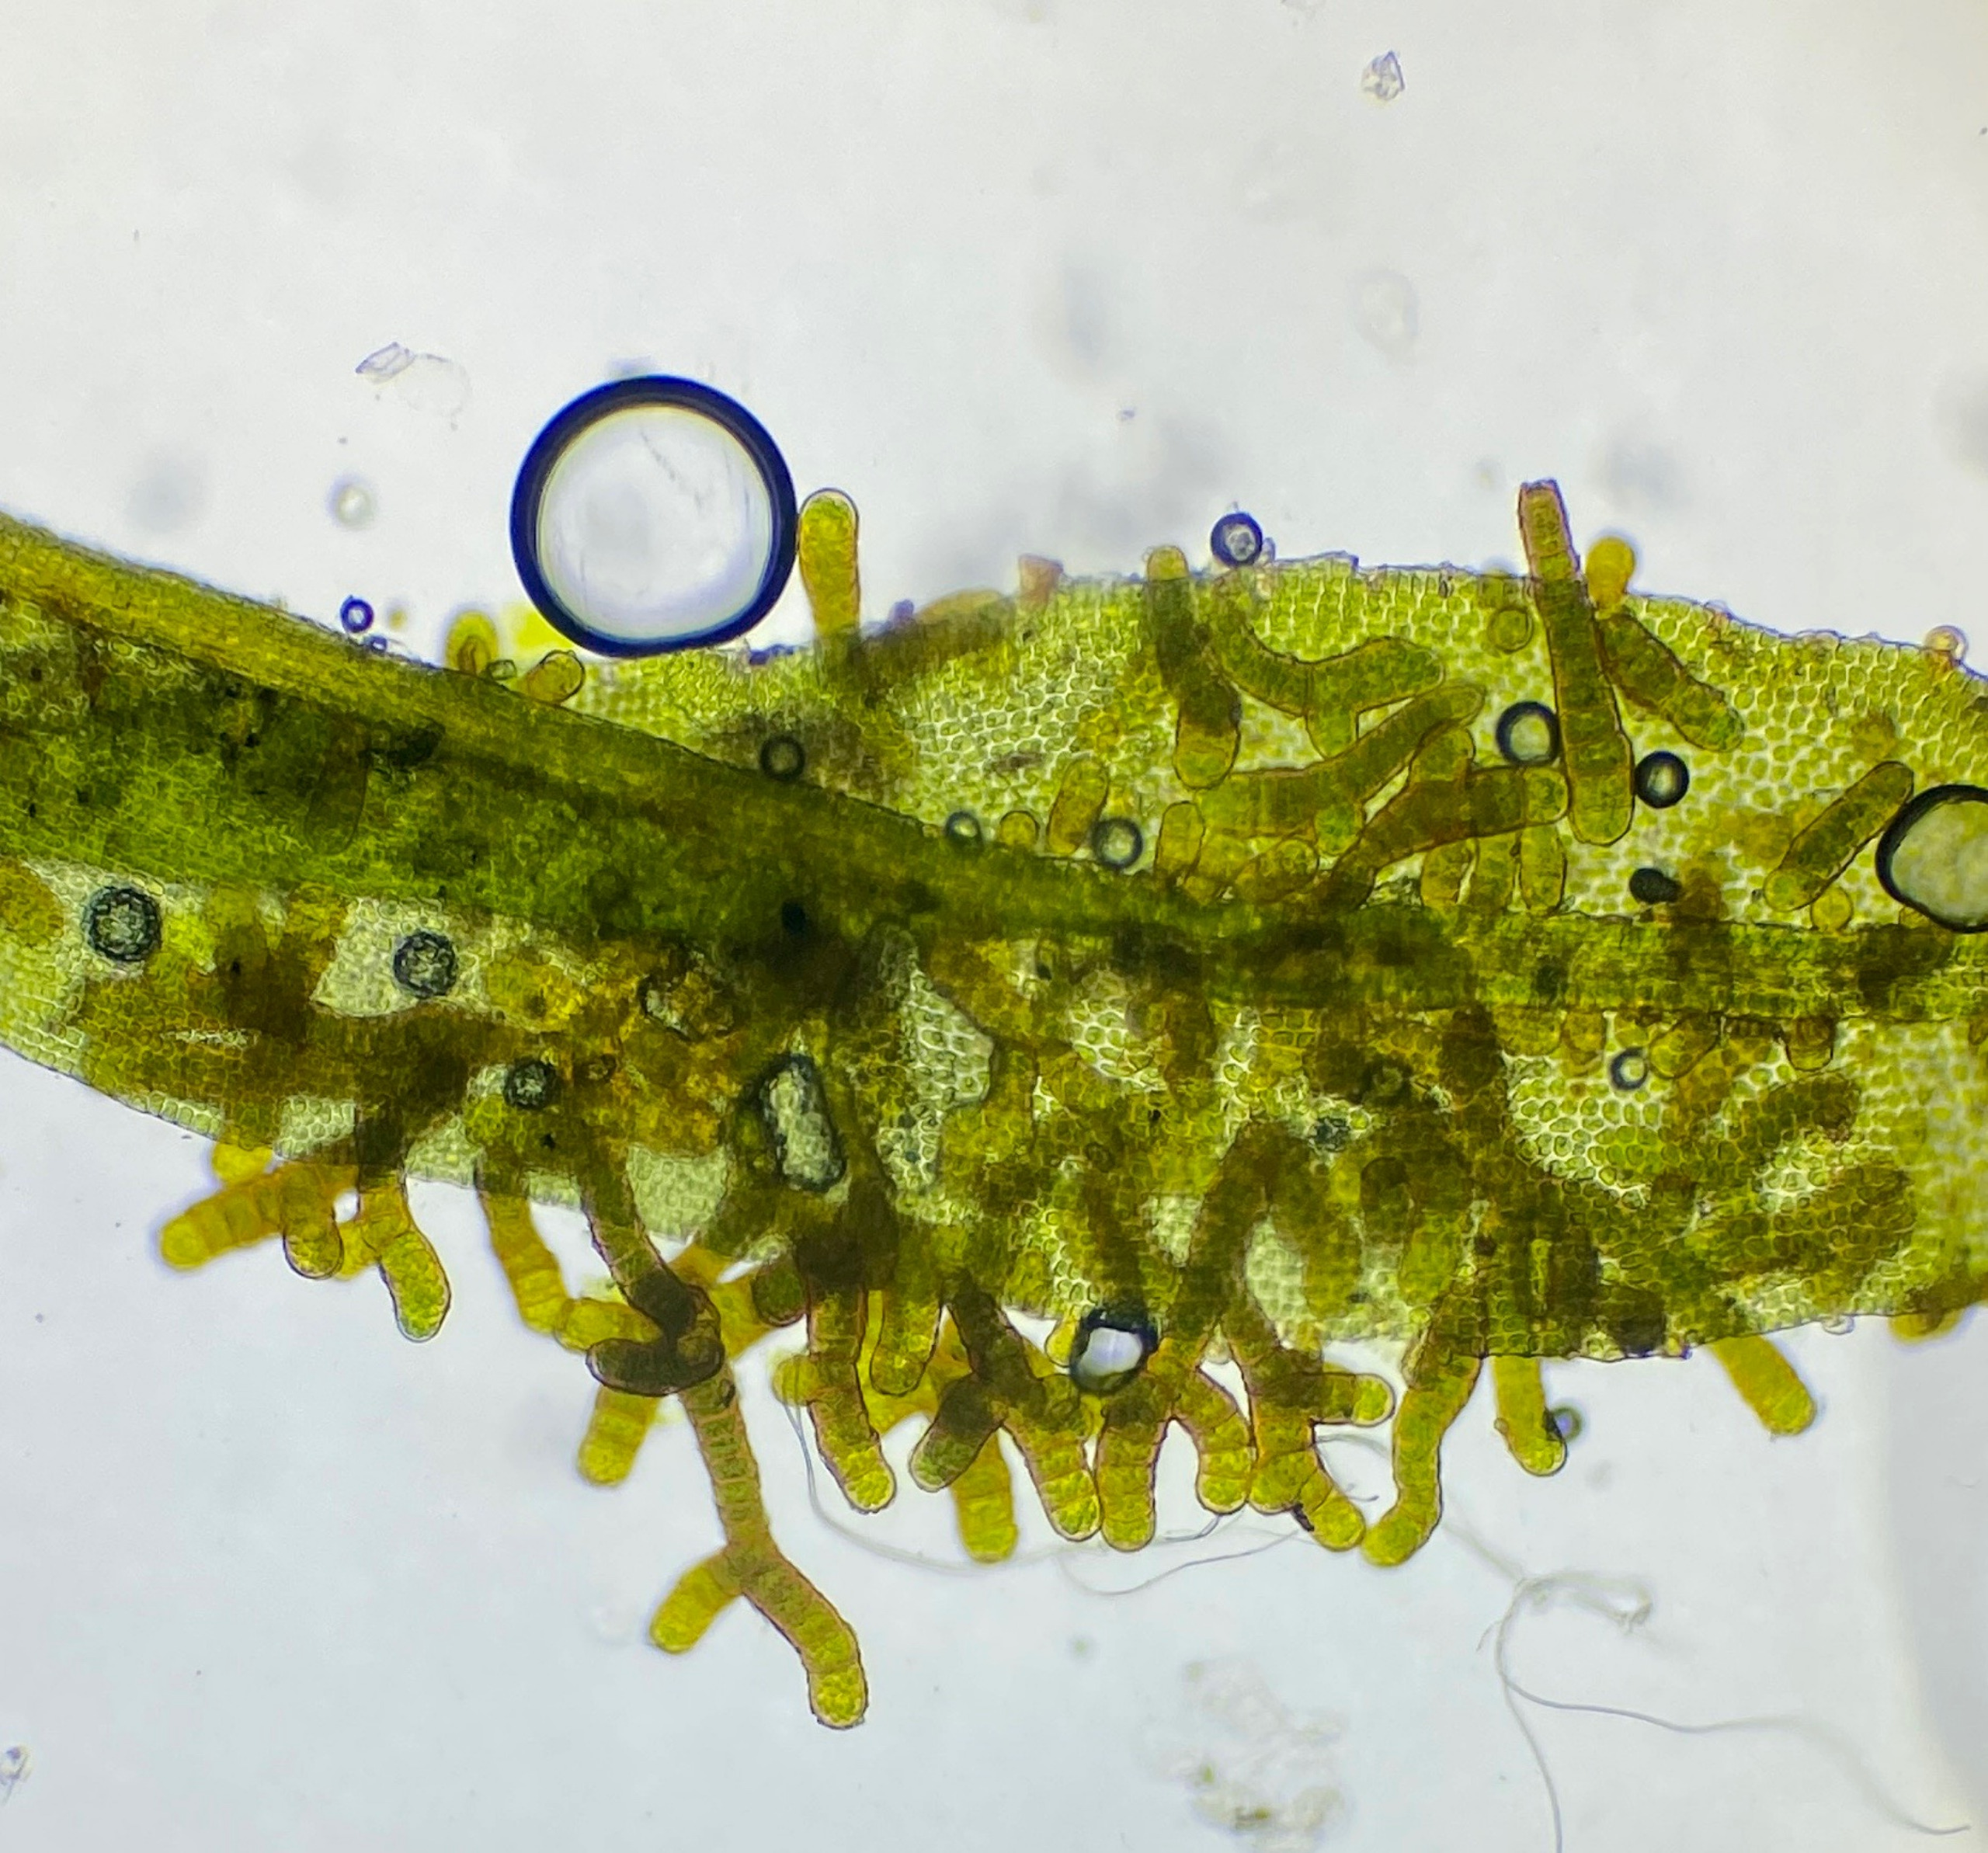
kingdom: Plantae
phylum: Bryophyta
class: Bryopsida
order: Orthotrichales
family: Orthotrichaceae
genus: Pulvigera
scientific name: Pulvigera lyellii
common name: Stor furehætte
